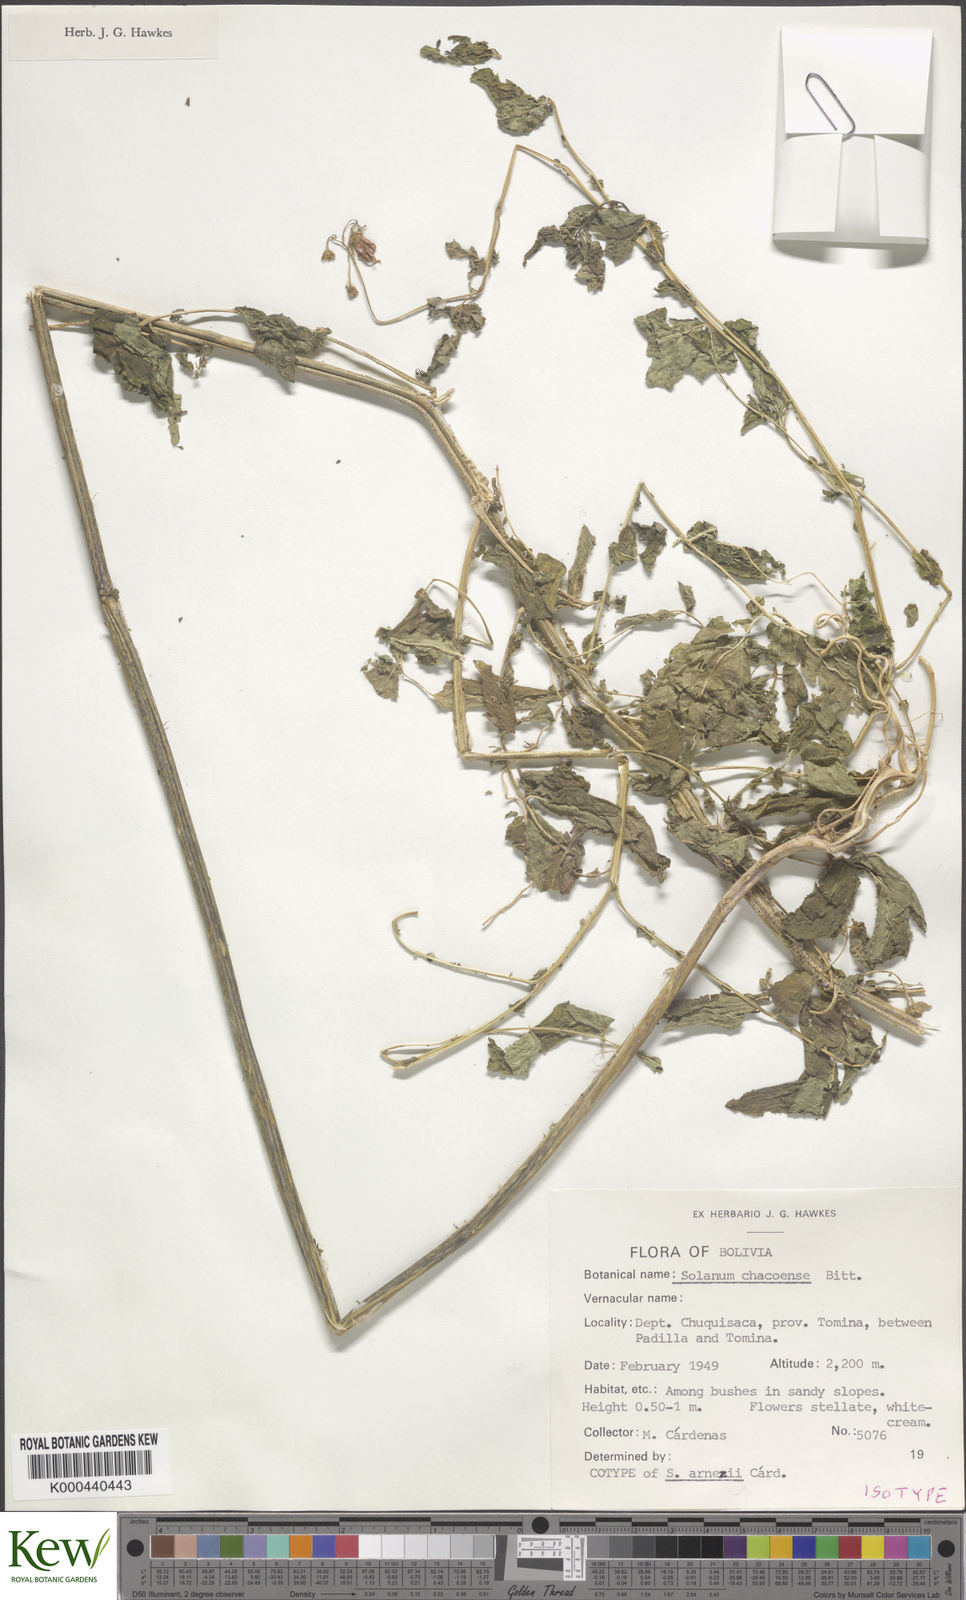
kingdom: Plantae
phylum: Tracheophyta
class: Magnoliopsida
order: Solanales
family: Solanaceae
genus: Solanum
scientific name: Solanum chacoense
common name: Chaco potato
